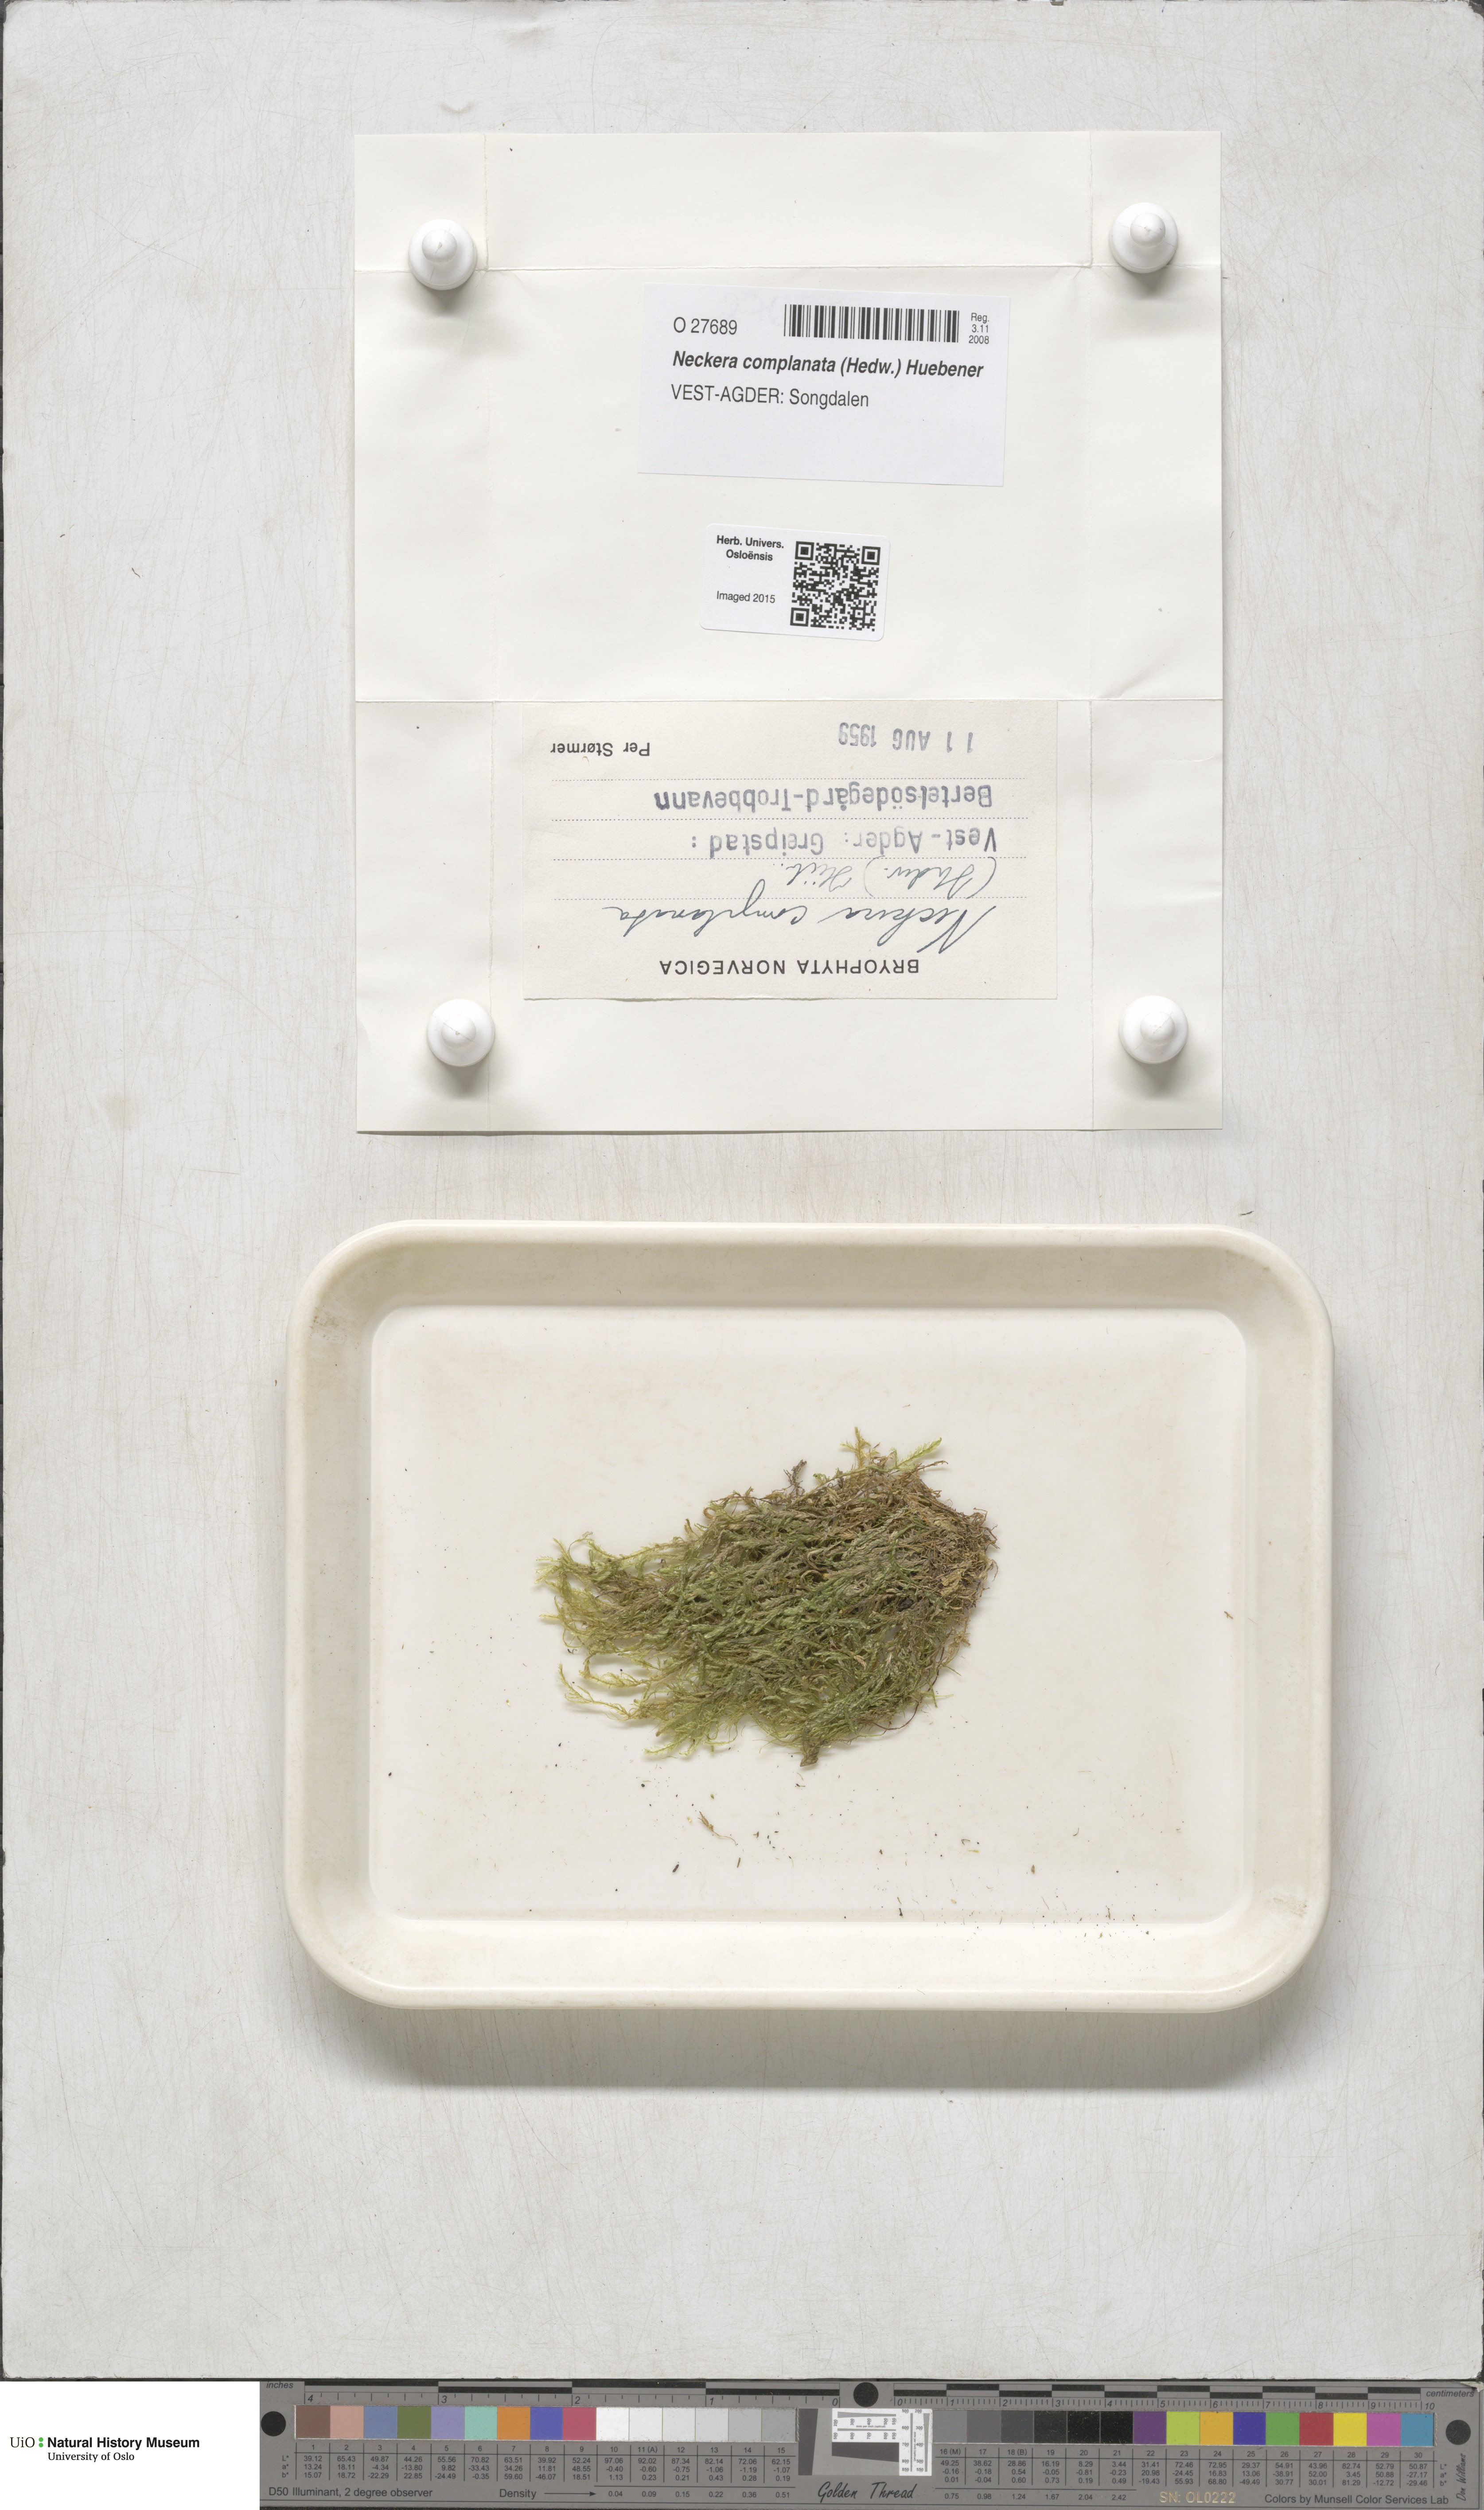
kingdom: Plantae
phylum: Bryophyta
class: Bryopsida
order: Hypnales
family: Neckeraceae
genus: Alleniella
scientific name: Alleniella complanata
